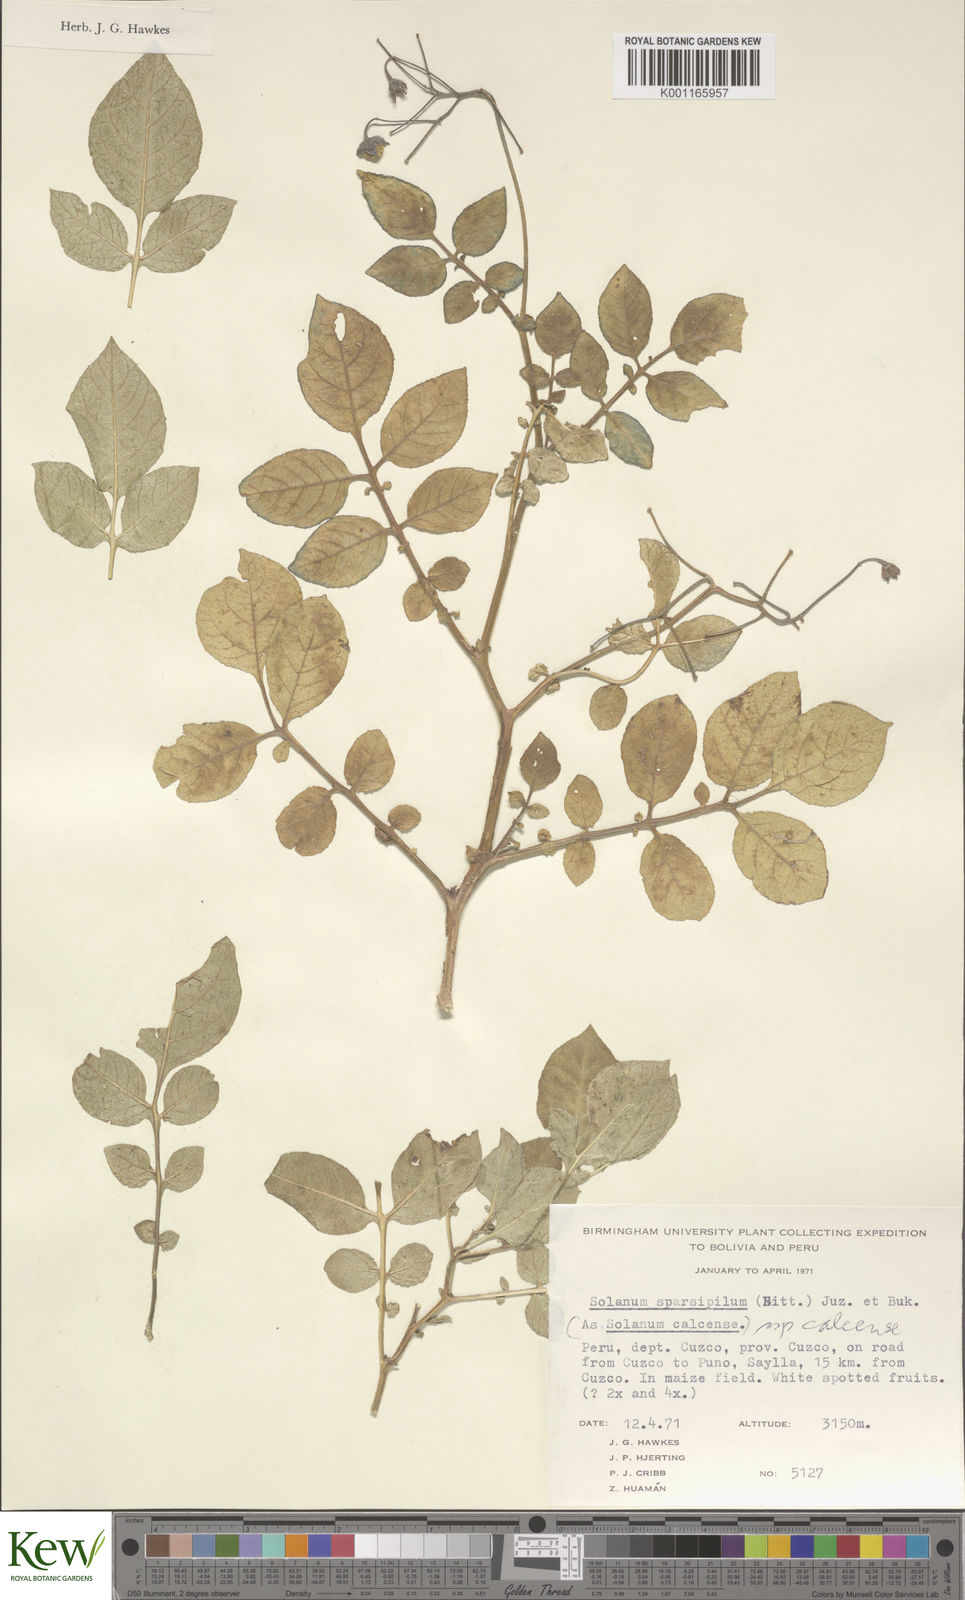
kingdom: Plantae
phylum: Tracheophyta
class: Magnoliopsida
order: Solanales
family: Solanaceae
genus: Solanum
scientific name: Solanum brevicaule
